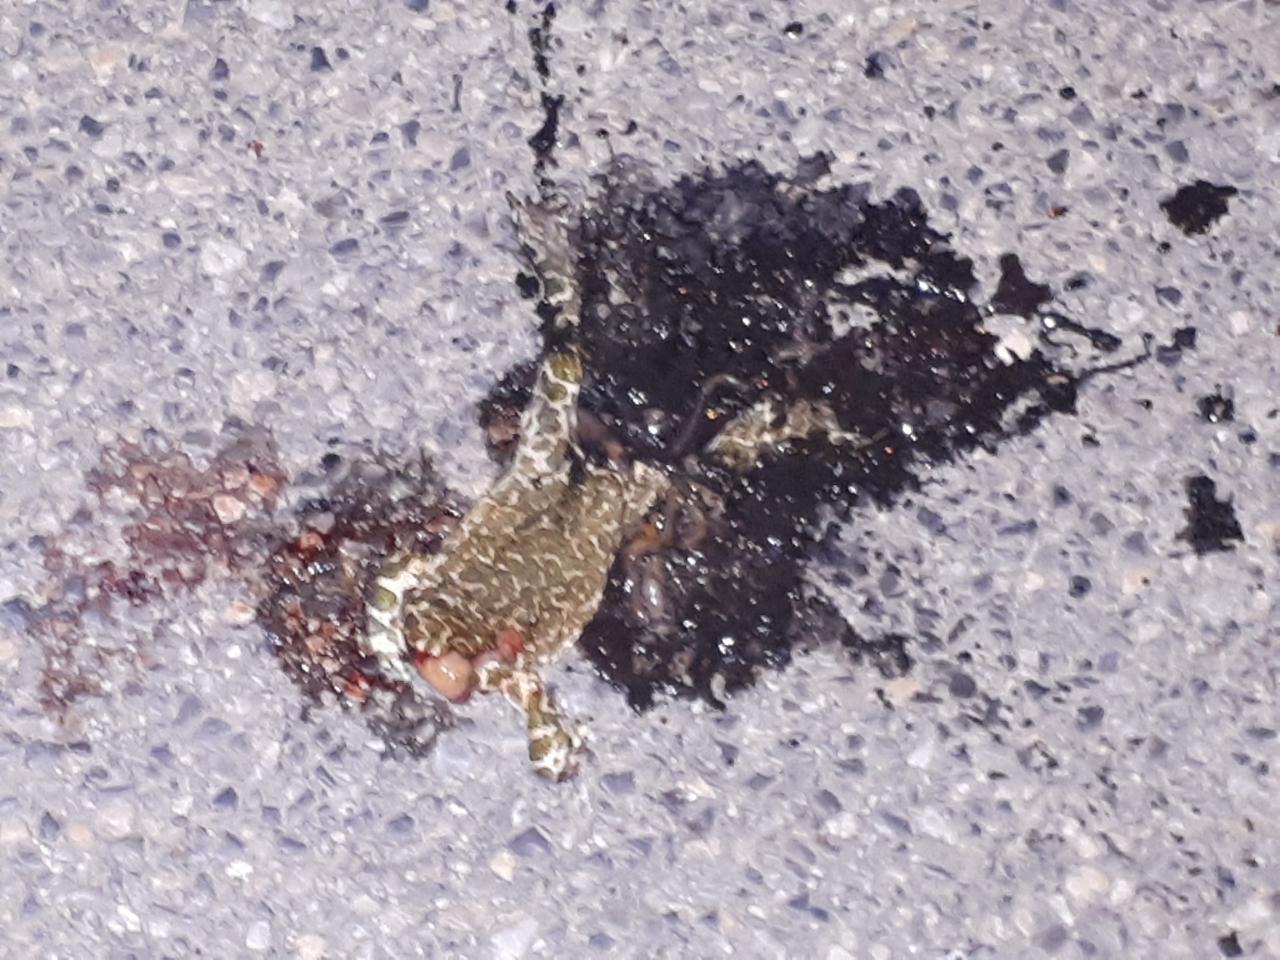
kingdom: Animalia
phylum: Chordata
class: Amphibia
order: Anura
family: Bufonidae
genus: Bufotes
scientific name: Bufotes viridis
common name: European green toad
